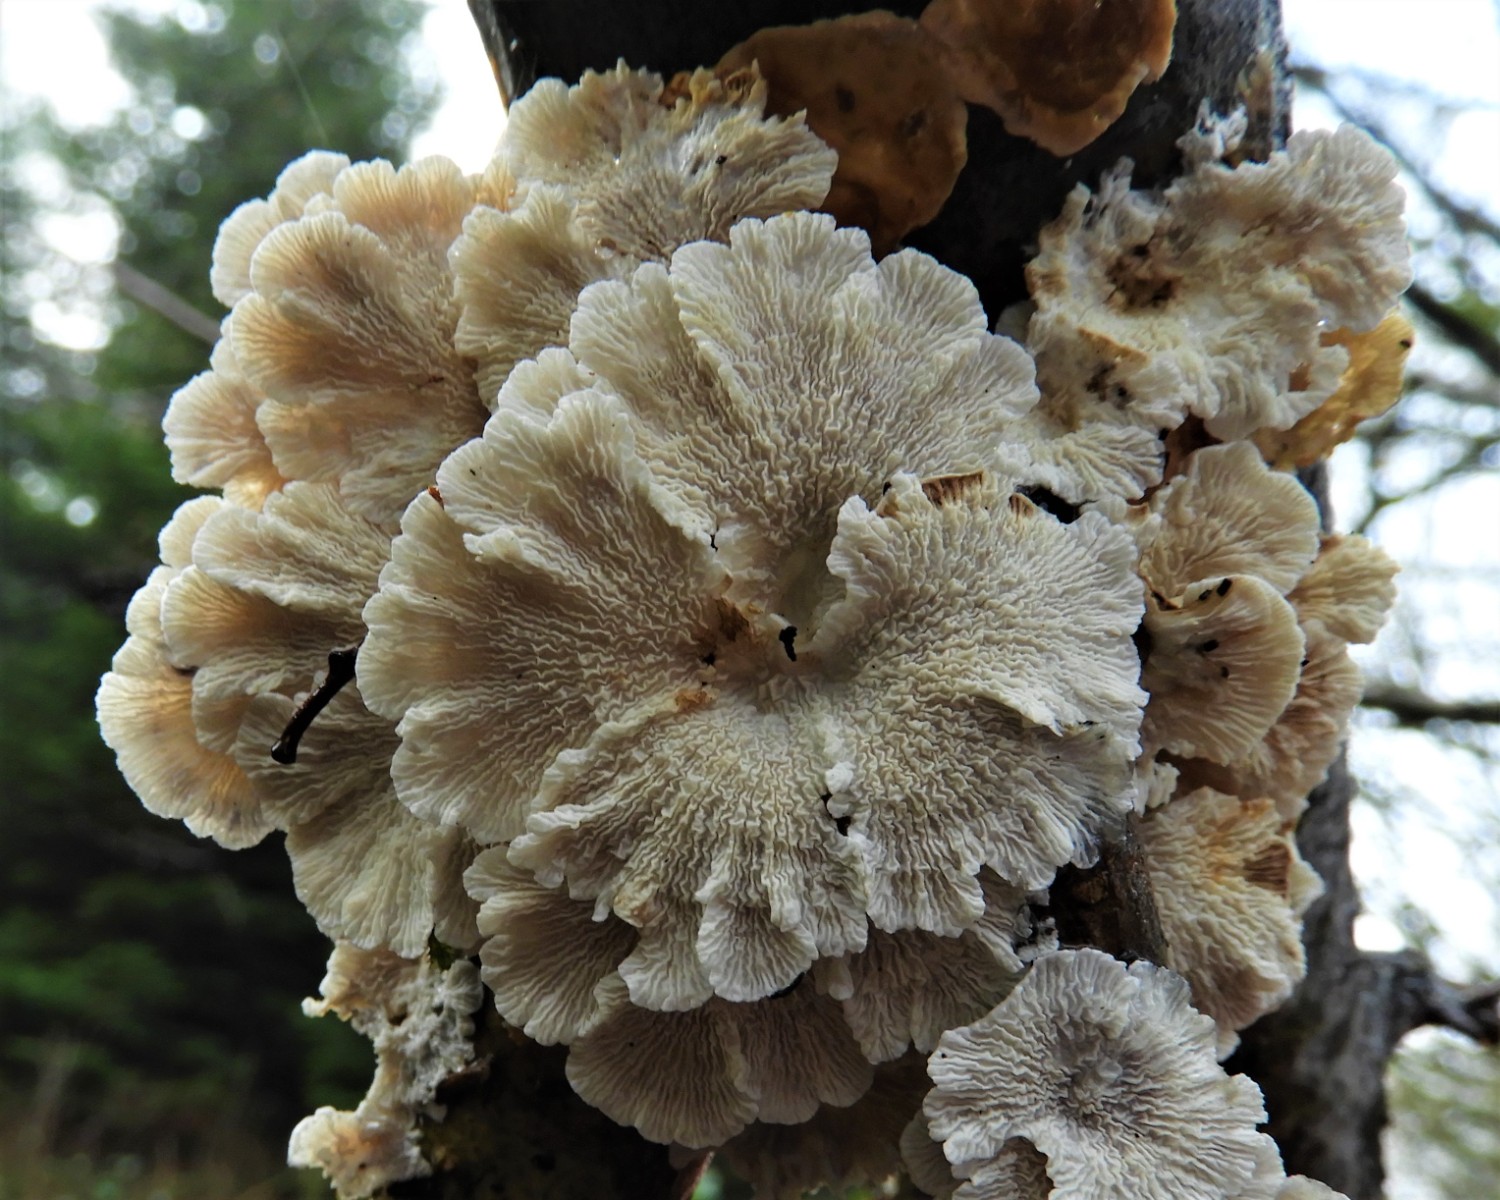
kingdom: Fungi
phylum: Basidiomycota
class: Agaricomycetes
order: Amylocorticiales
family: Amylocorticiaceae
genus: Plicaturopsis
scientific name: Plicaturopsis crispa
